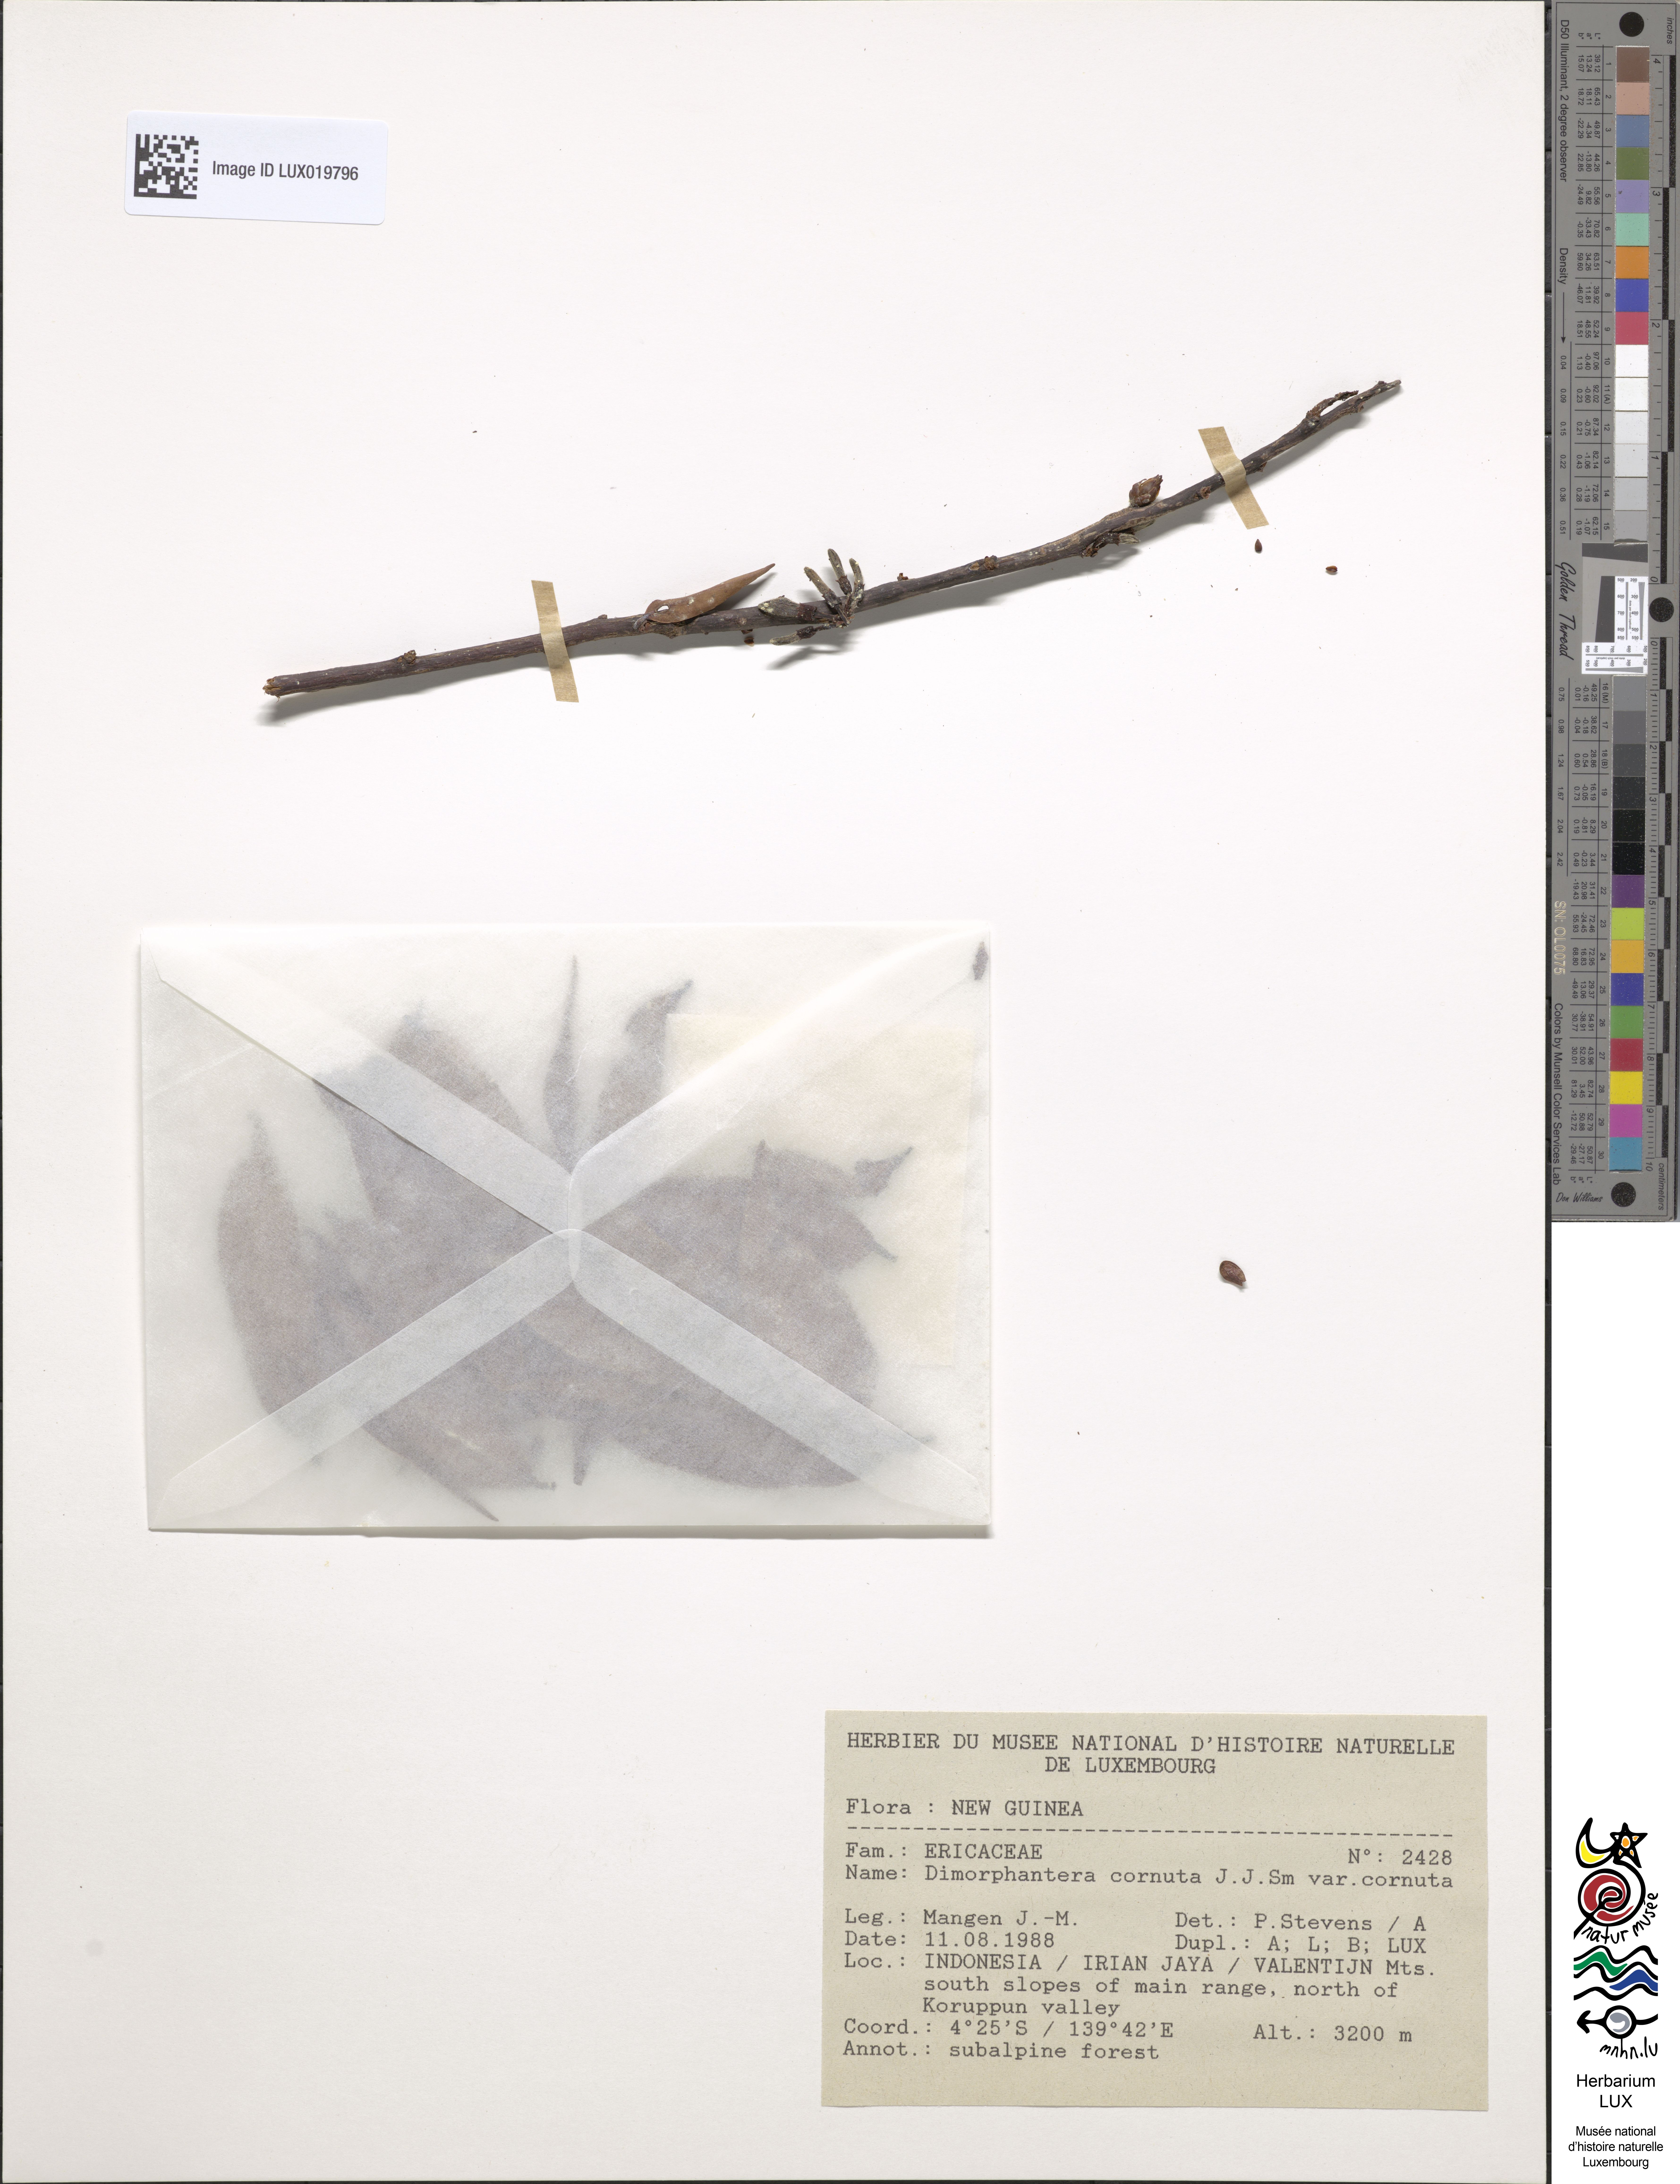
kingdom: Plantae
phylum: Tracheophyta
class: Magnoliopsida
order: Ericales
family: Ericaceae
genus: Dimorphanthera
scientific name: Dimorphanthera cornuta
